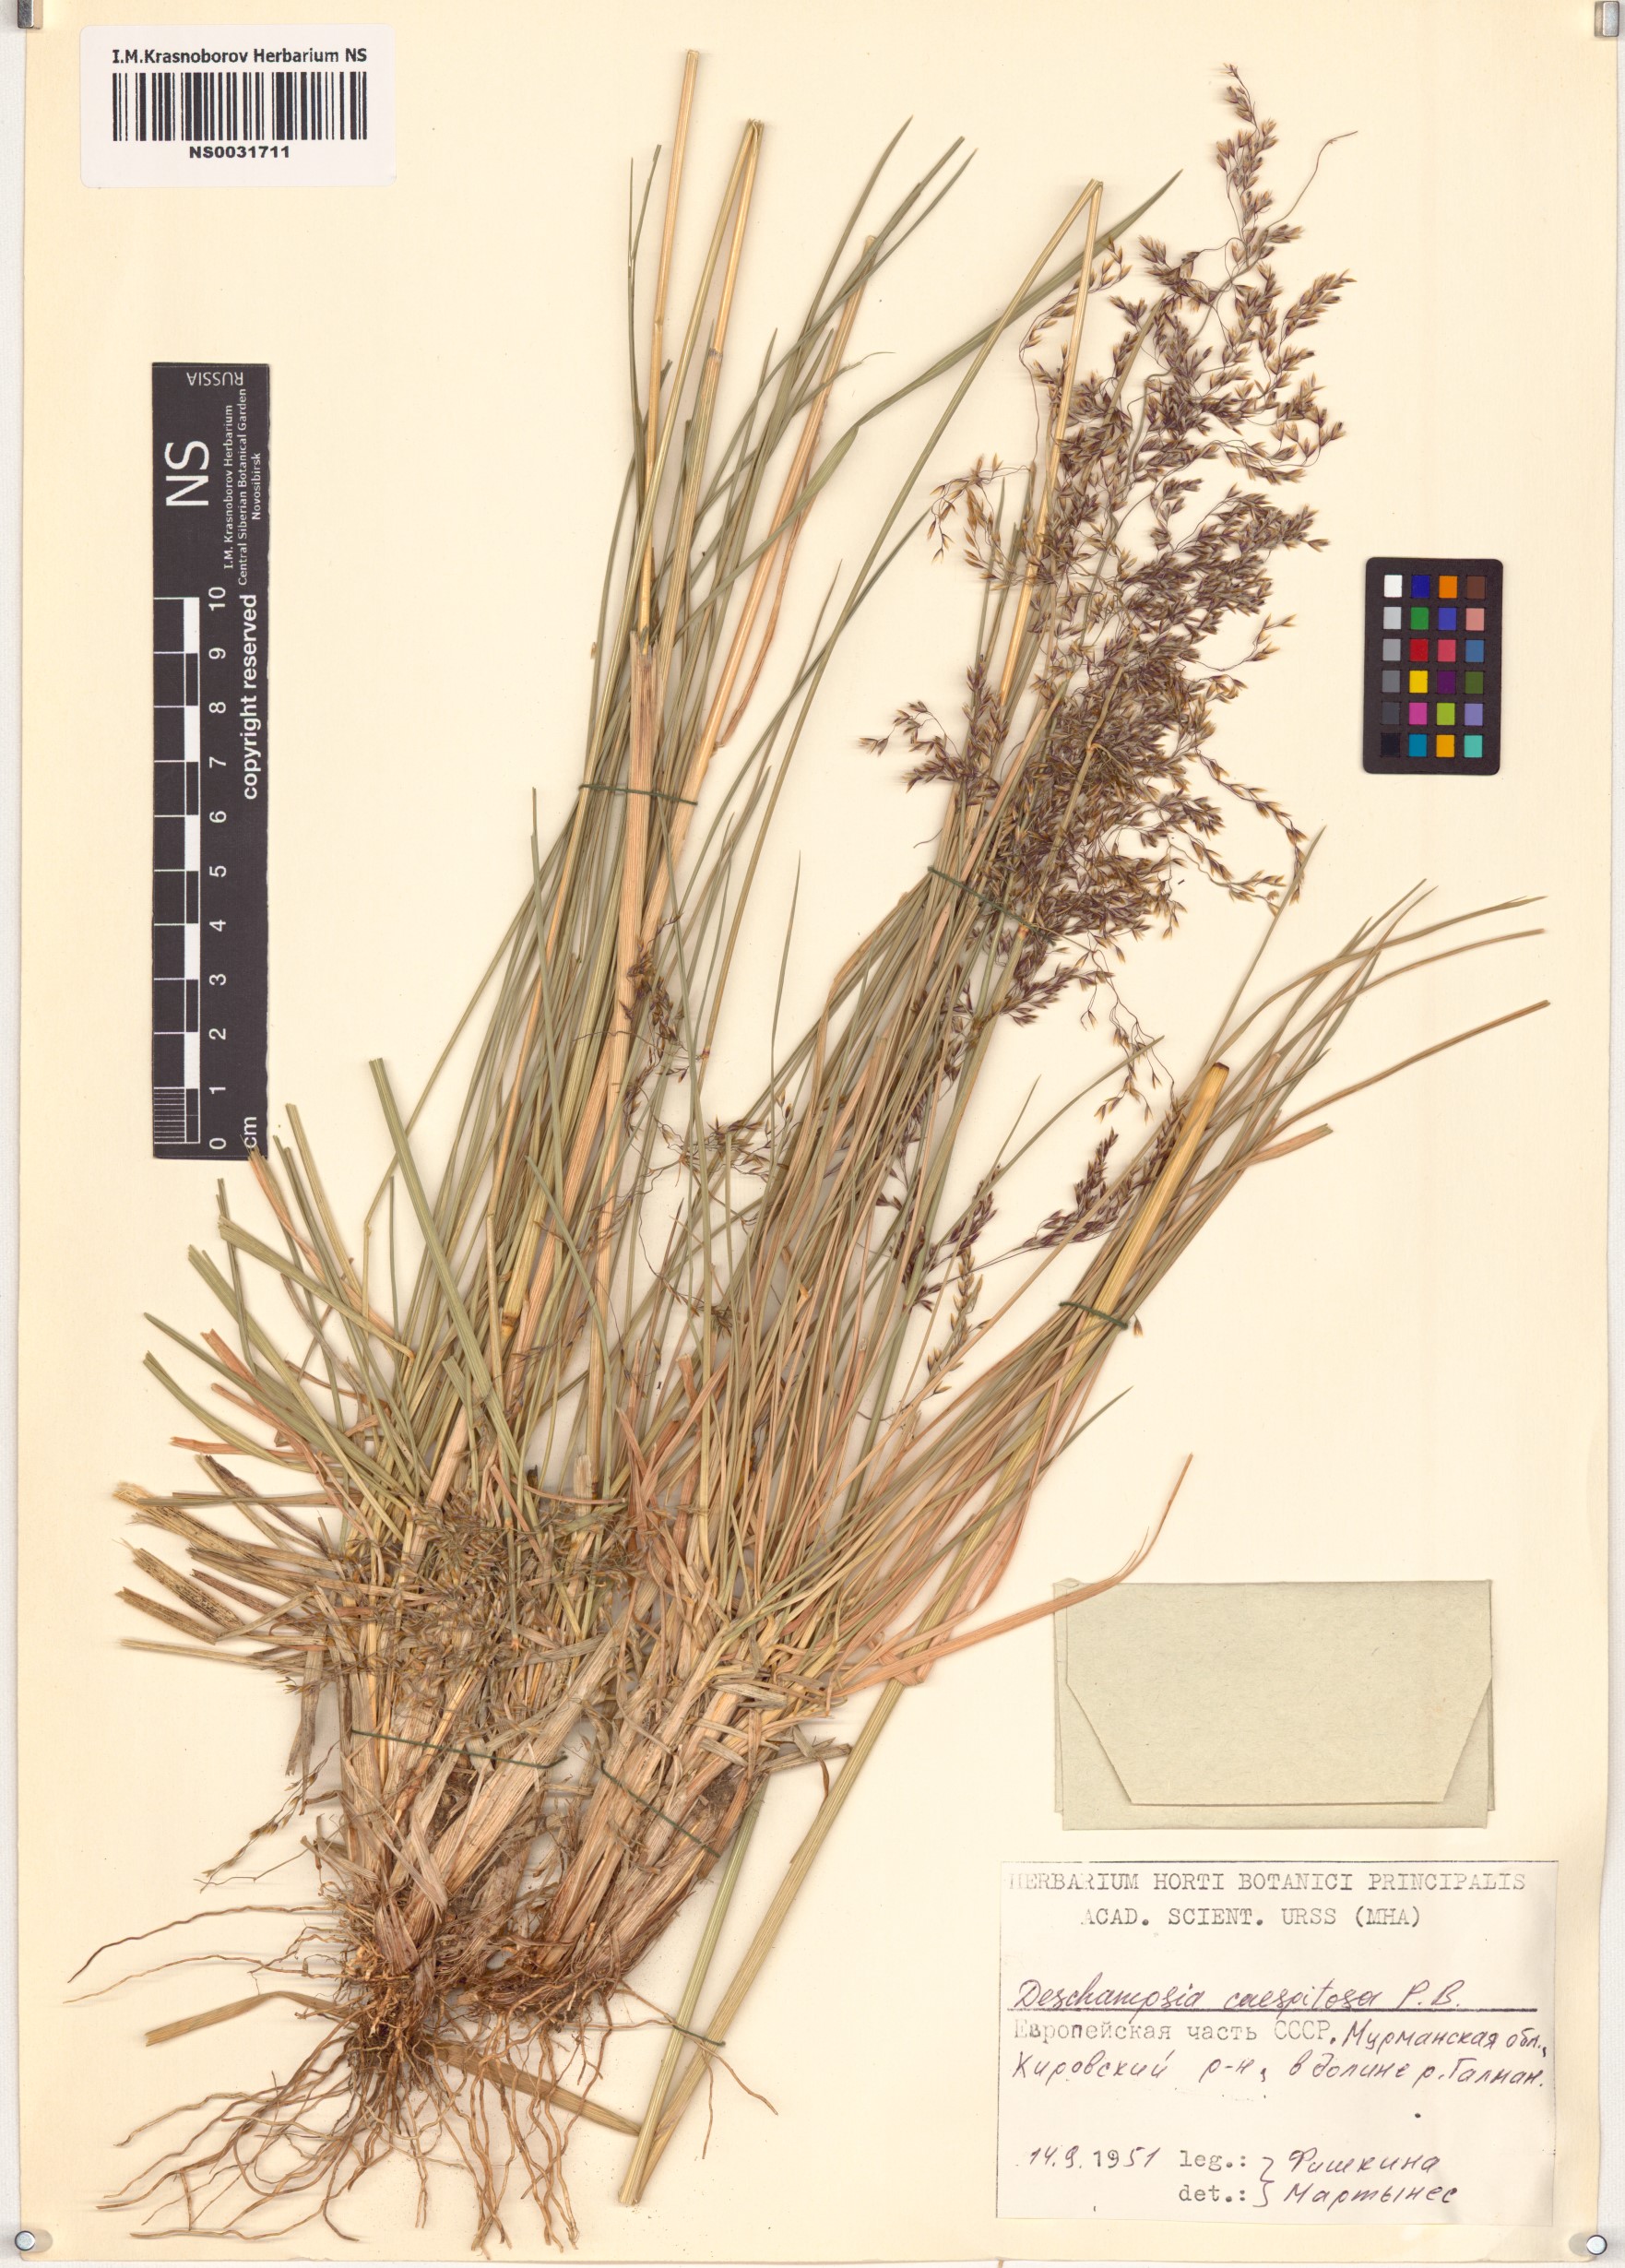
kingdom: Plantae
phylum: Tracheophyta
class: Liliopsida
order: Poales
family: Poaceae
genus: Deschampsia
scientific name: Deschampsia cespitosa
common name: Tufted hair-grass
